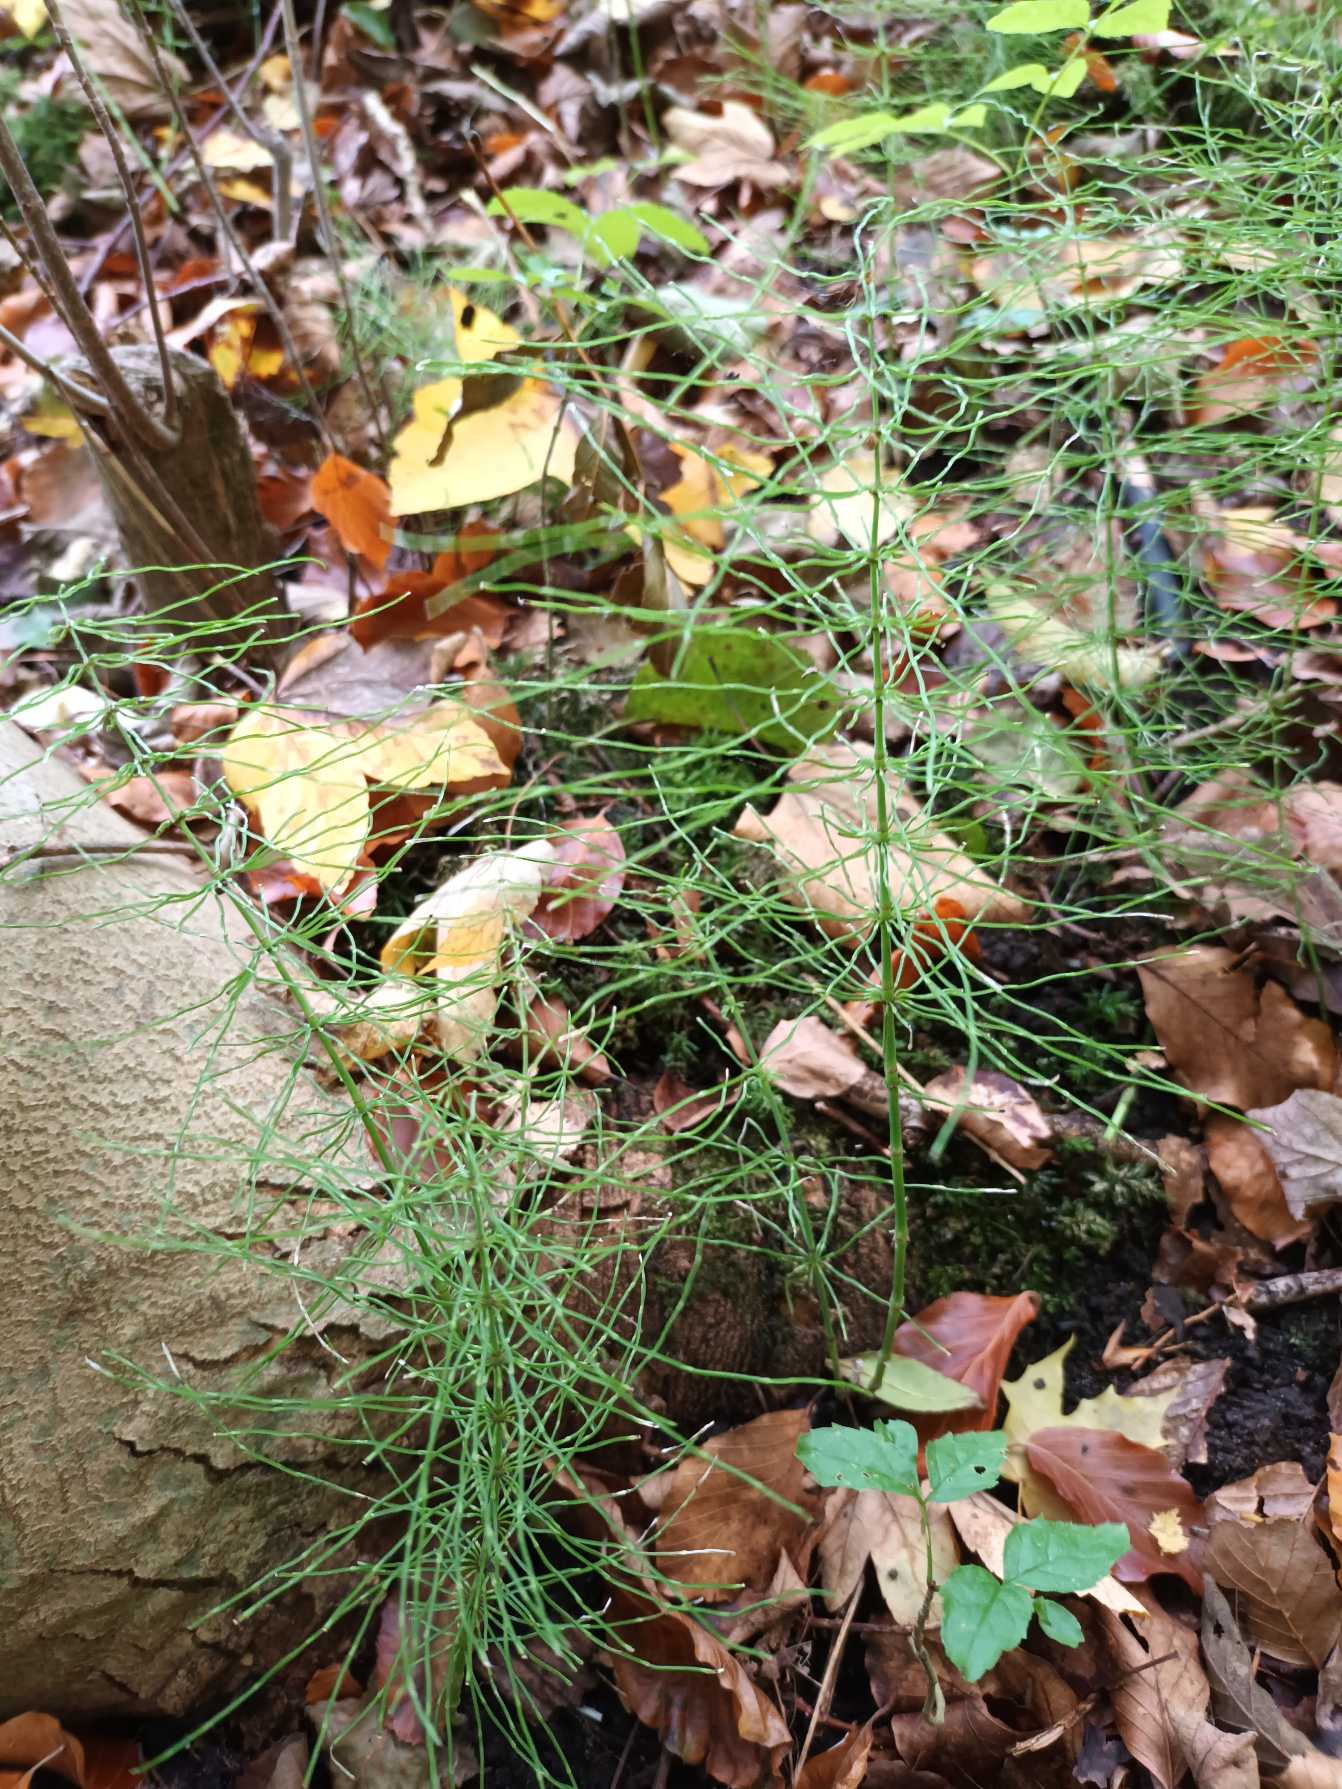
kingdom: Plantae
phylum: Tracheophyta
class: Polypodiopsida
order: Equisetales
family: Equisetaceae
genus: Equisetum
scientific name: Equisetum pratense
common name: Lund-padderok
